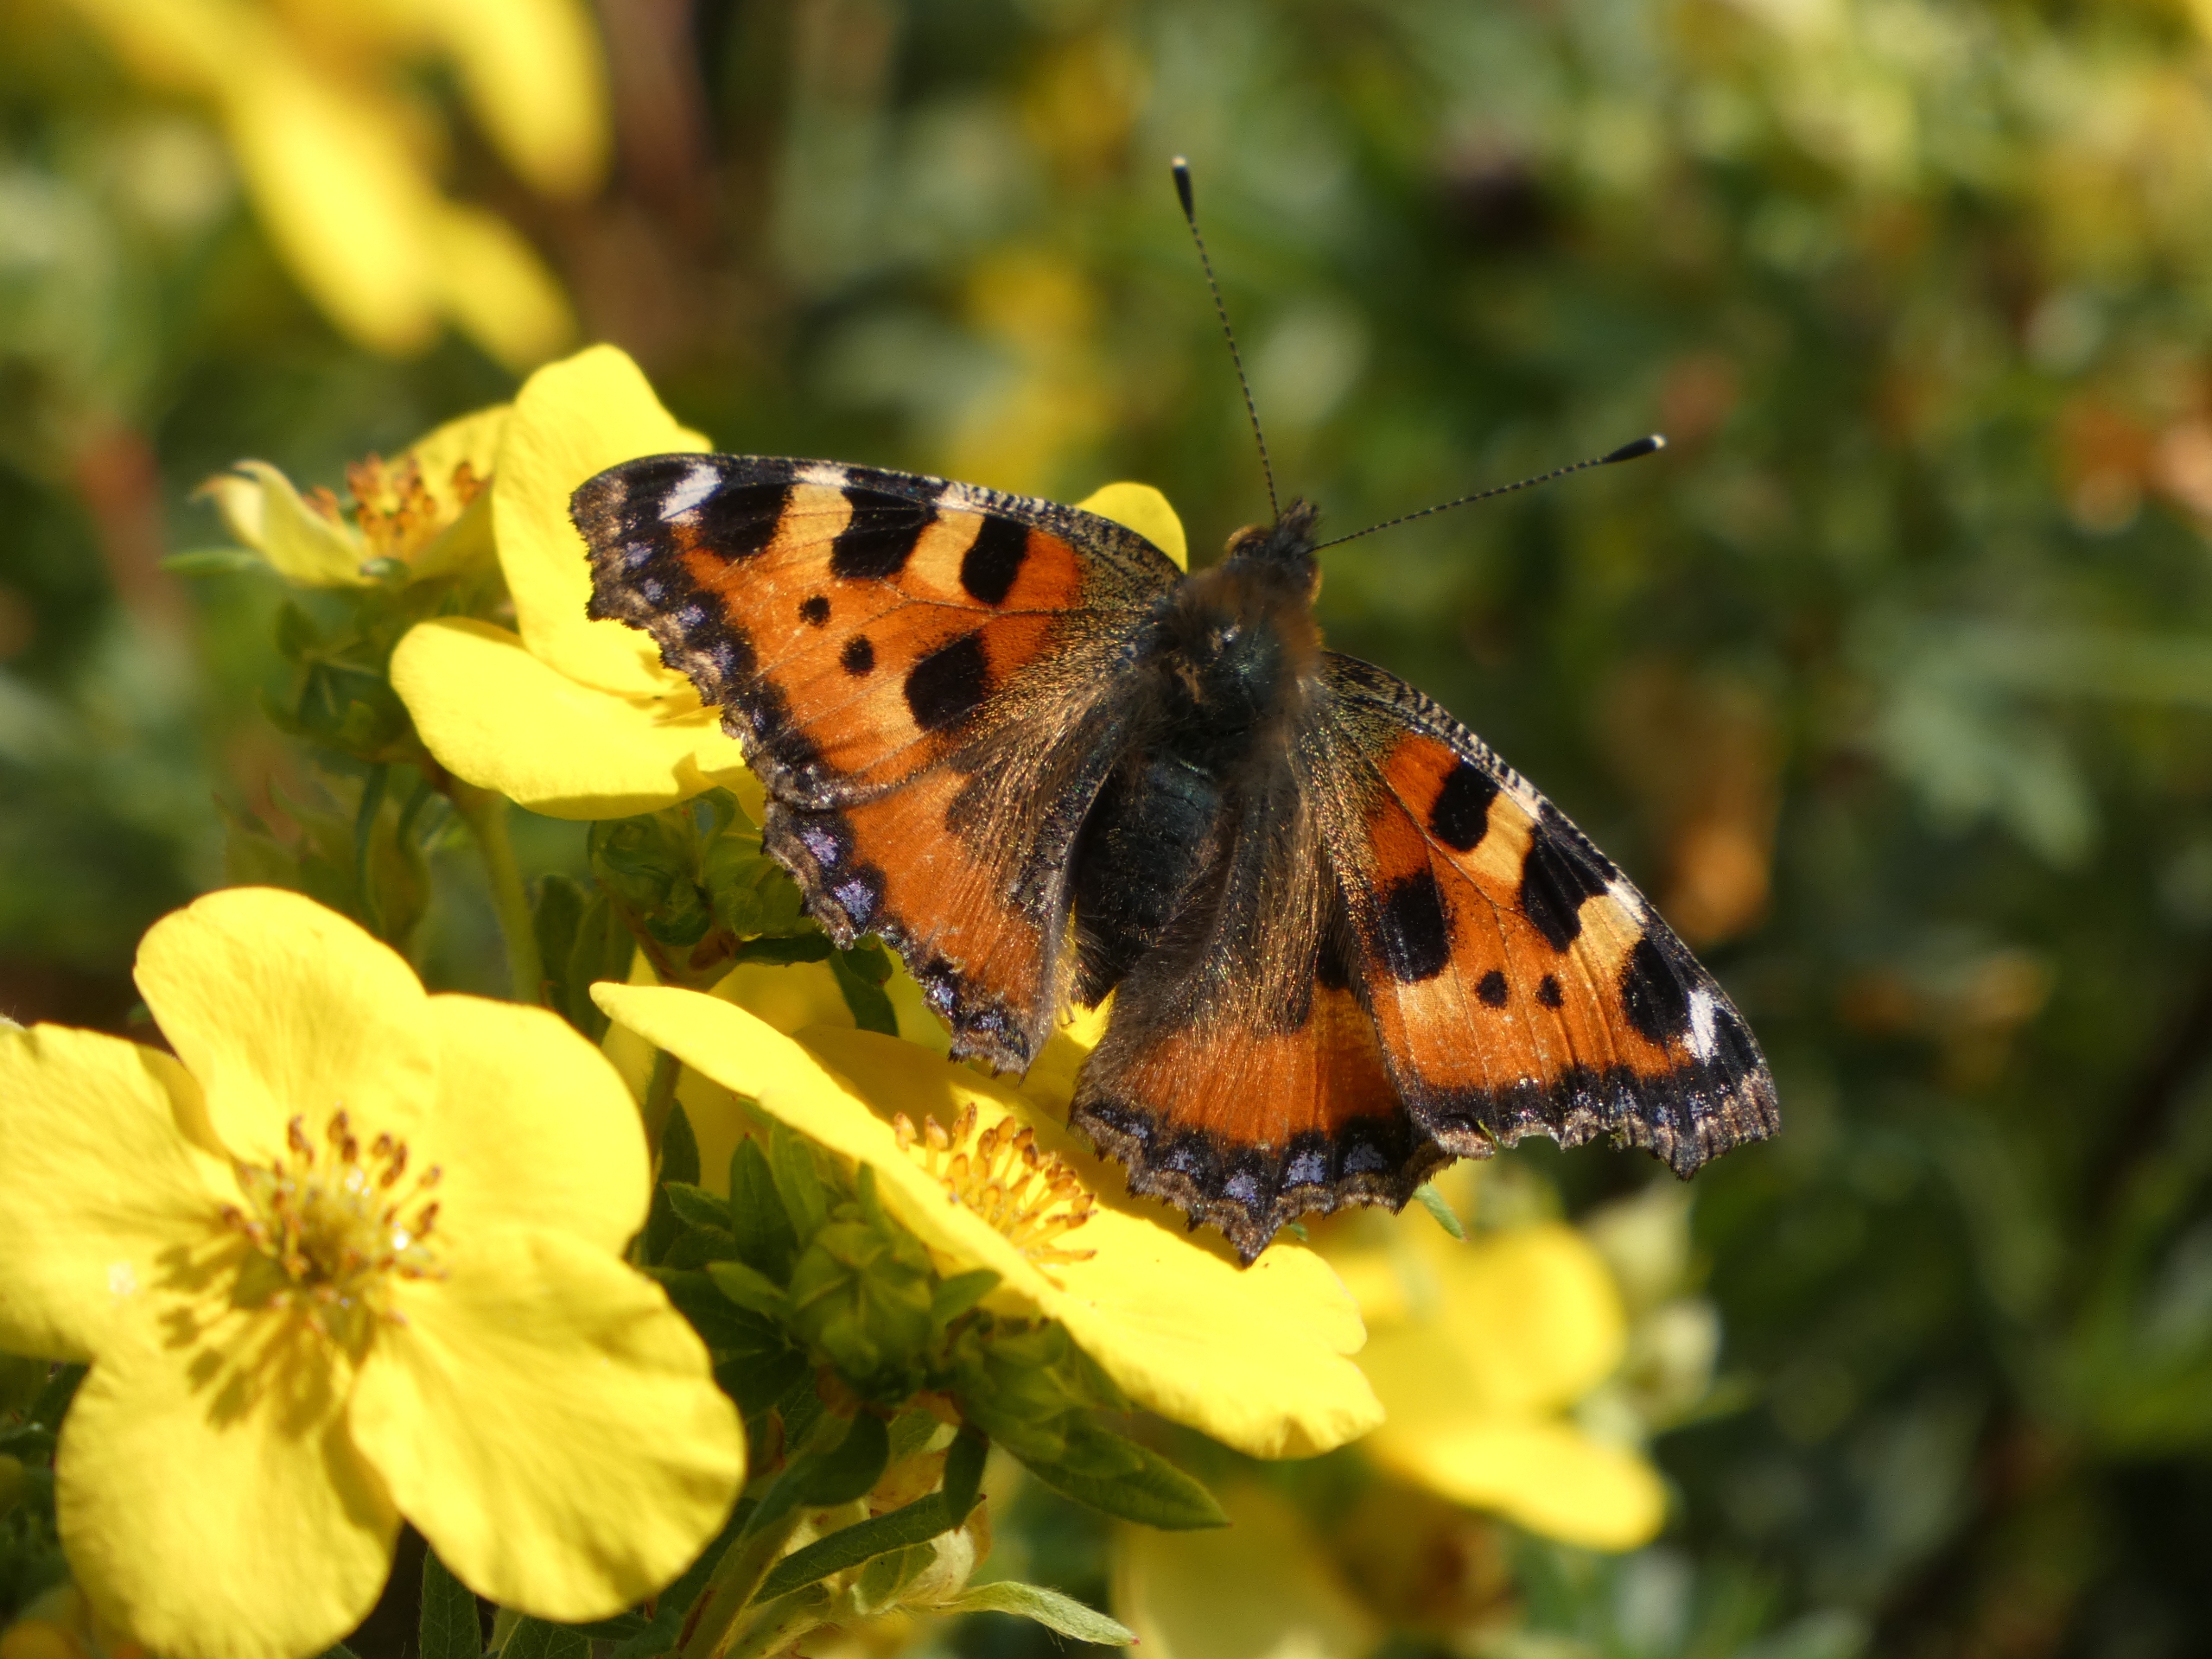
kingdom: Animalia
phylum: Arthropoda
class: Insecta
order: Lepidoptera
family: Nymphalidae
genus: Aglais
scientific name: Aglais urticae
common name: Nældens takvinge
